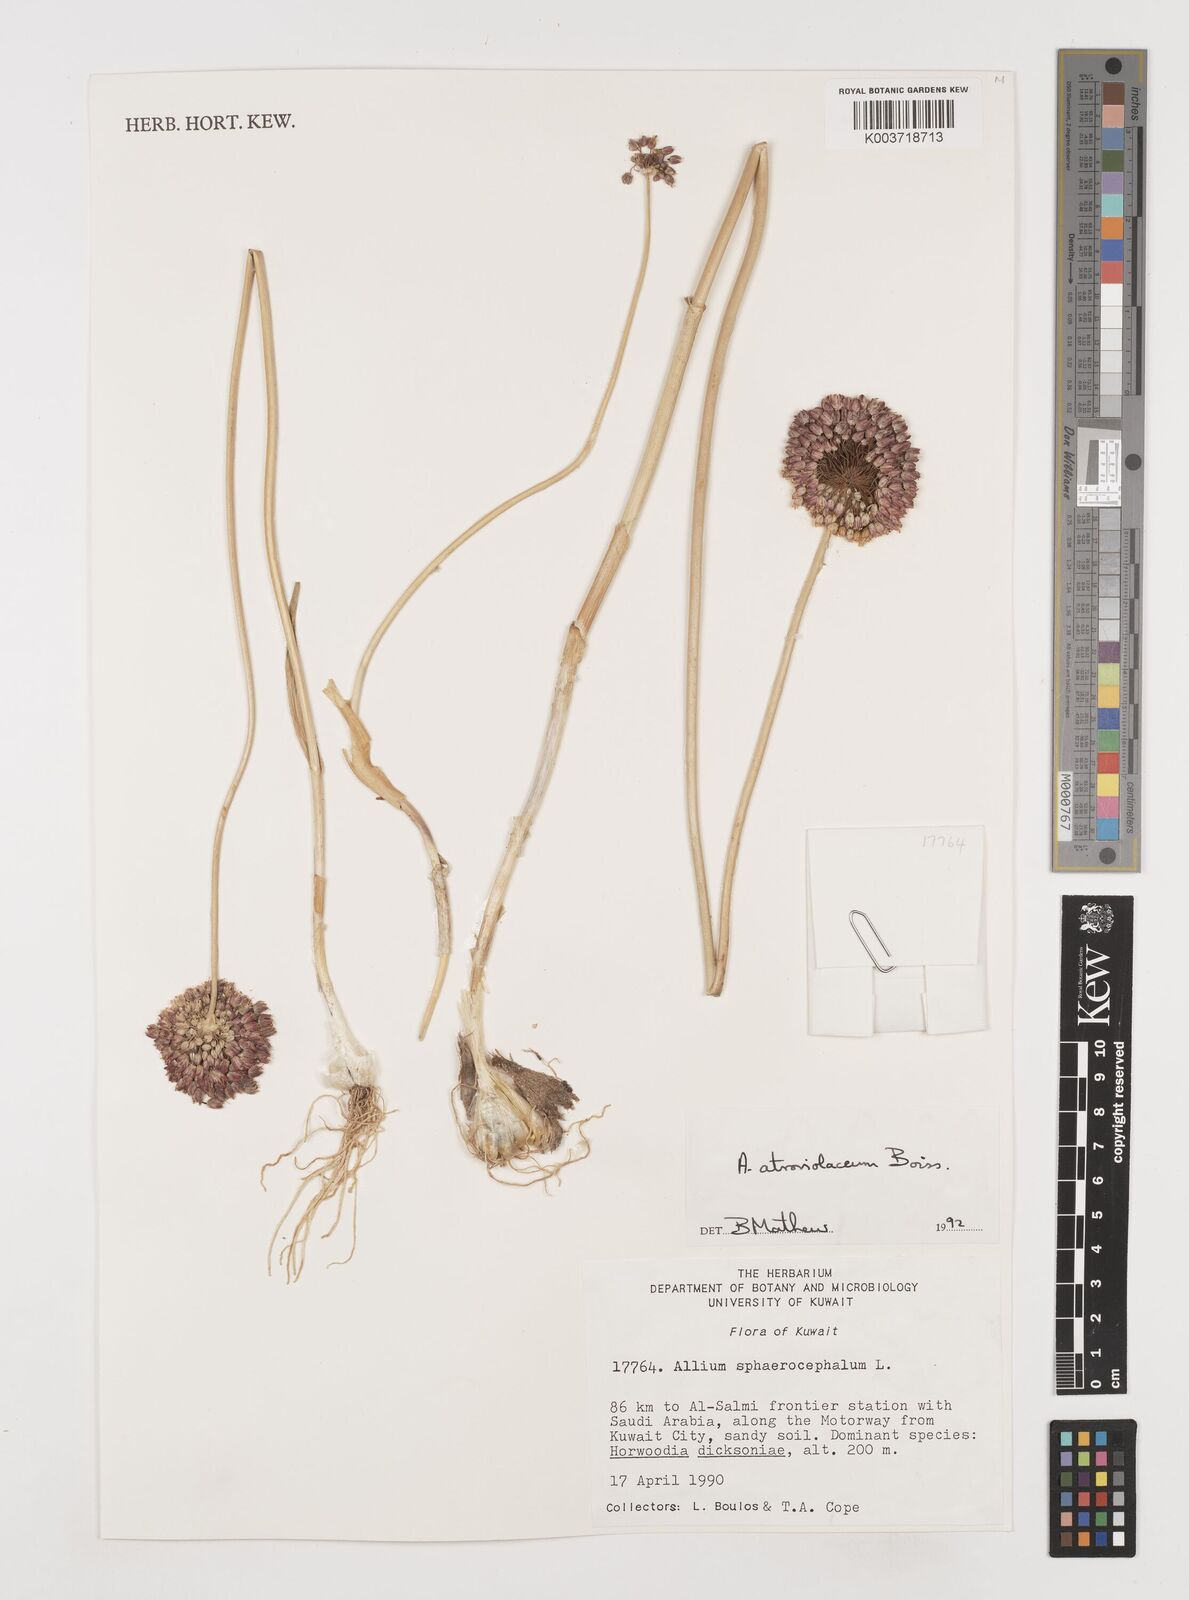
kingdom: Plantae
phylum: Tracheophyta
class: Liliopsida
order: Asparagales
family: Amaryllidaceae
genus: Allium
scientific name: Allium atroviolaceum
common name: Broadleaf wild leek
